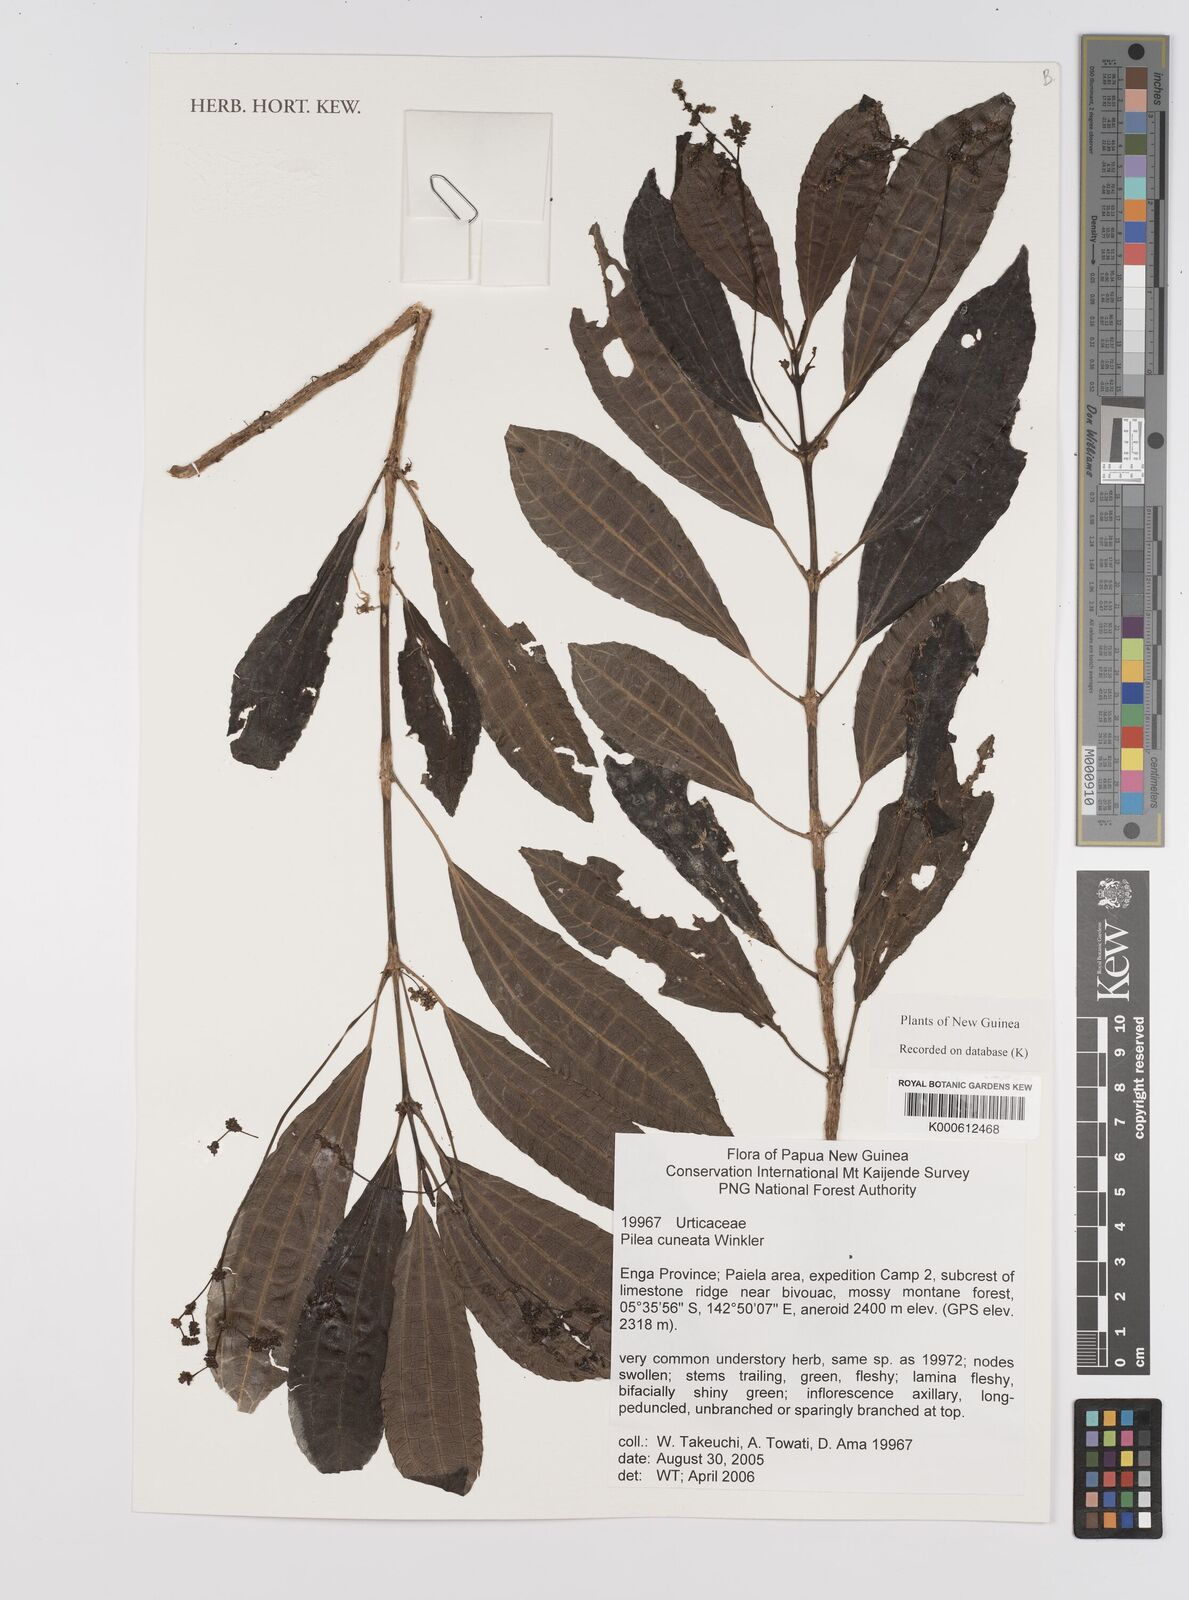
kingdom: Plantae
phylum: Tracheophyta
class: Magnoliopsida
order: Rosales
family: Urticaceae
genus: Pilea
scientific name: Pilea caudata
